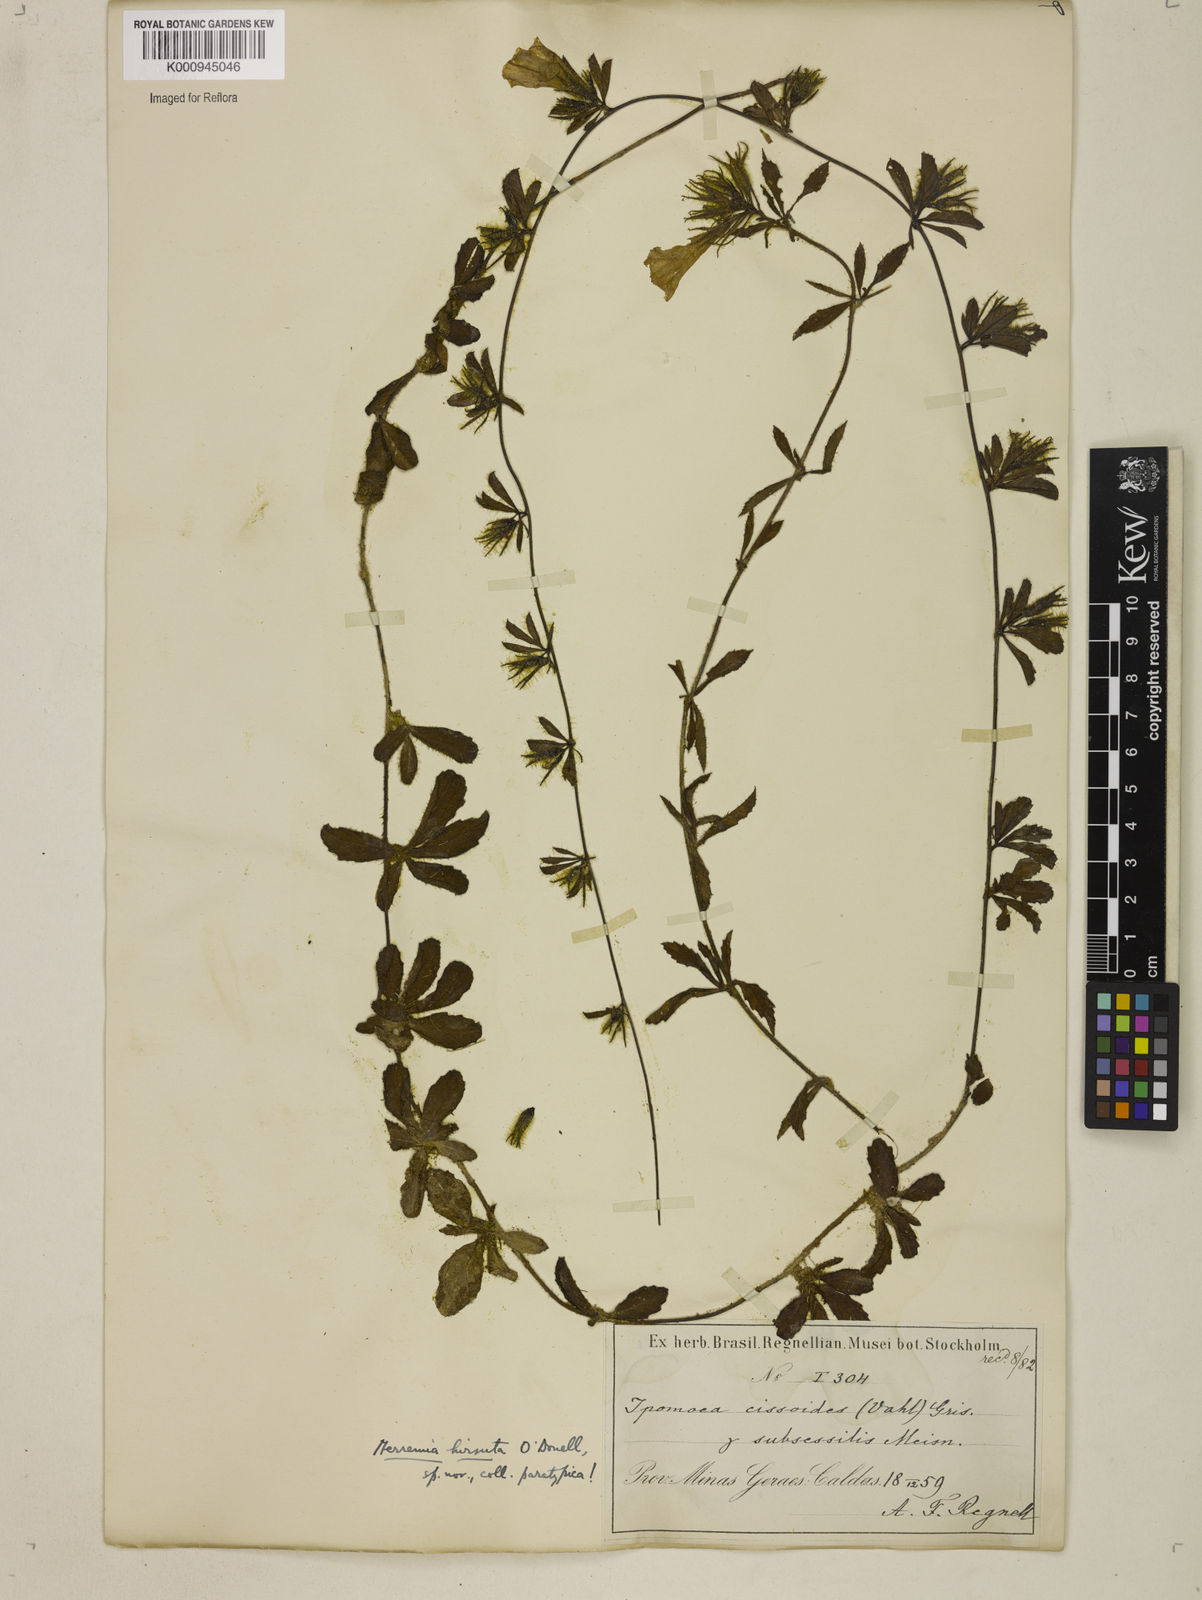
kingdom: Plantae
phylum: Tracheophyta
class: Magnoliopsida
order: Solanales
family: Convolvulaceae
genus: Distimake
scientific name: Distimake cissoides
